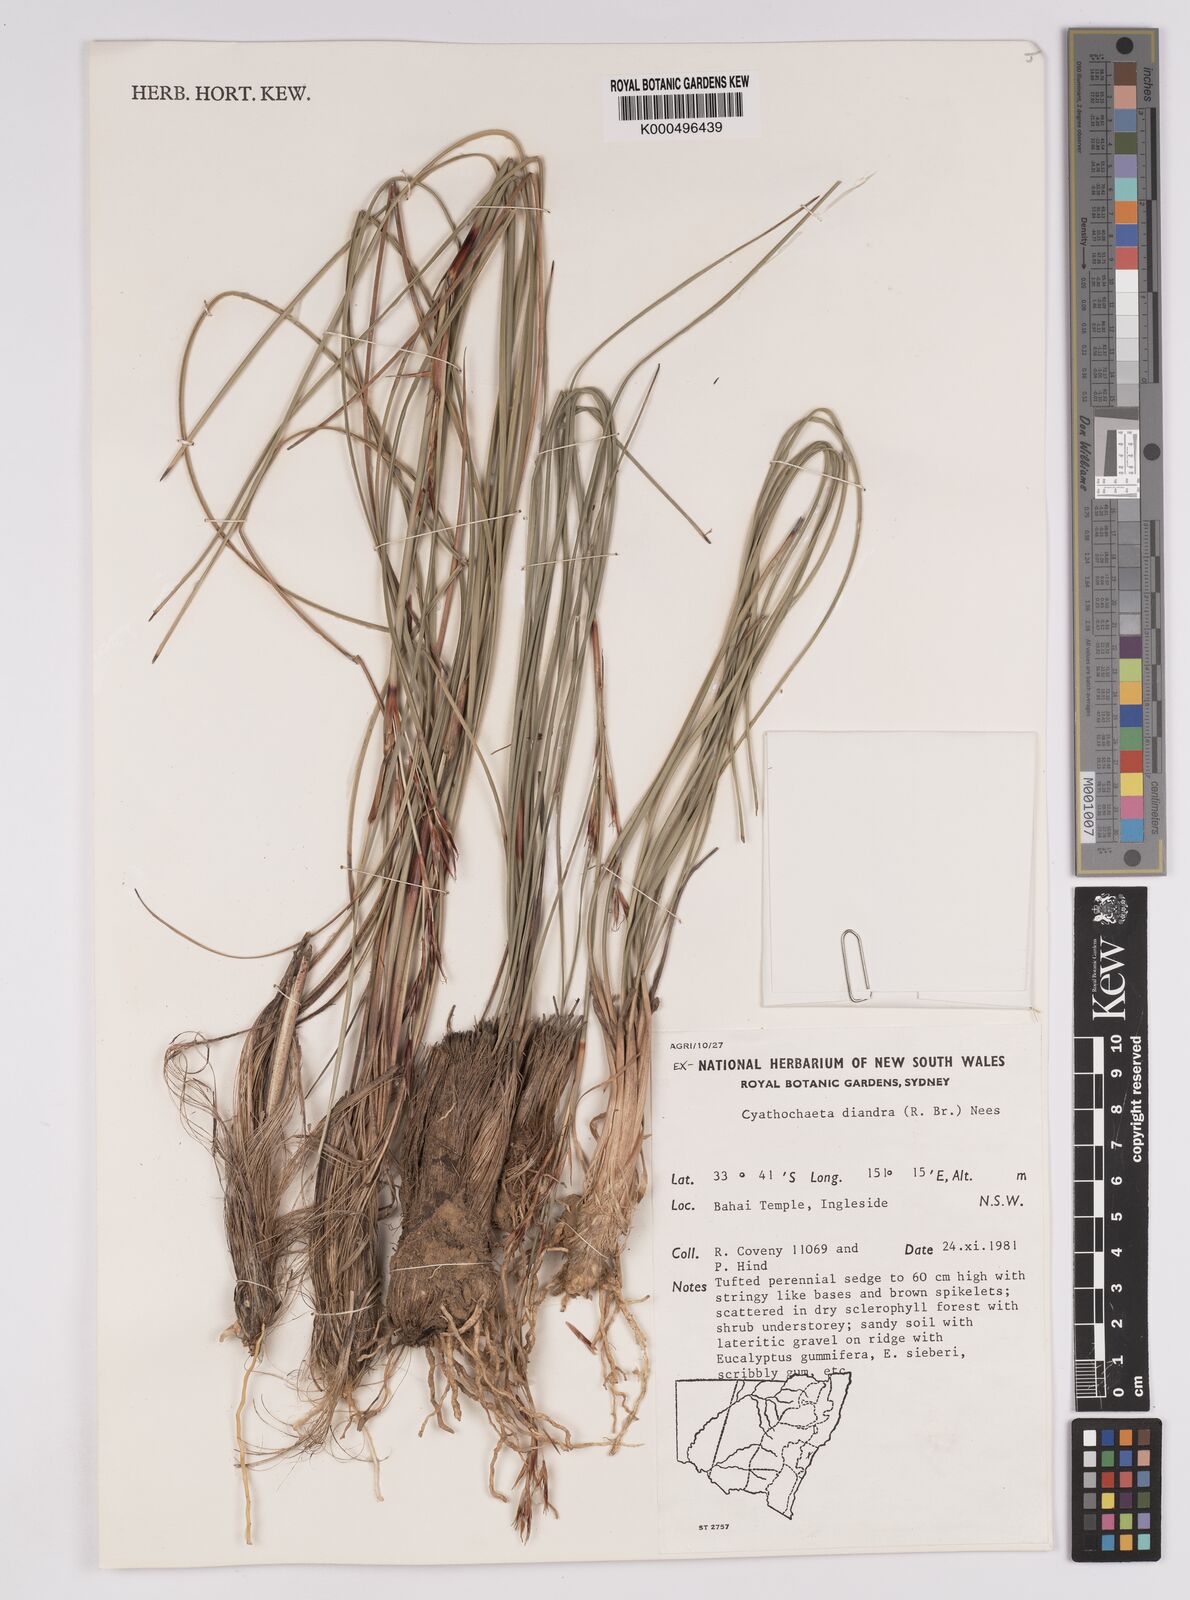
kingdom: Plantae
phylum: Tracheophyta
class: Liliopsida
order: Poales
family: Cyperaceae
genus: Cyathochaeta
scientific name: Cyathochaeta diandra
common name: Sheath rush
